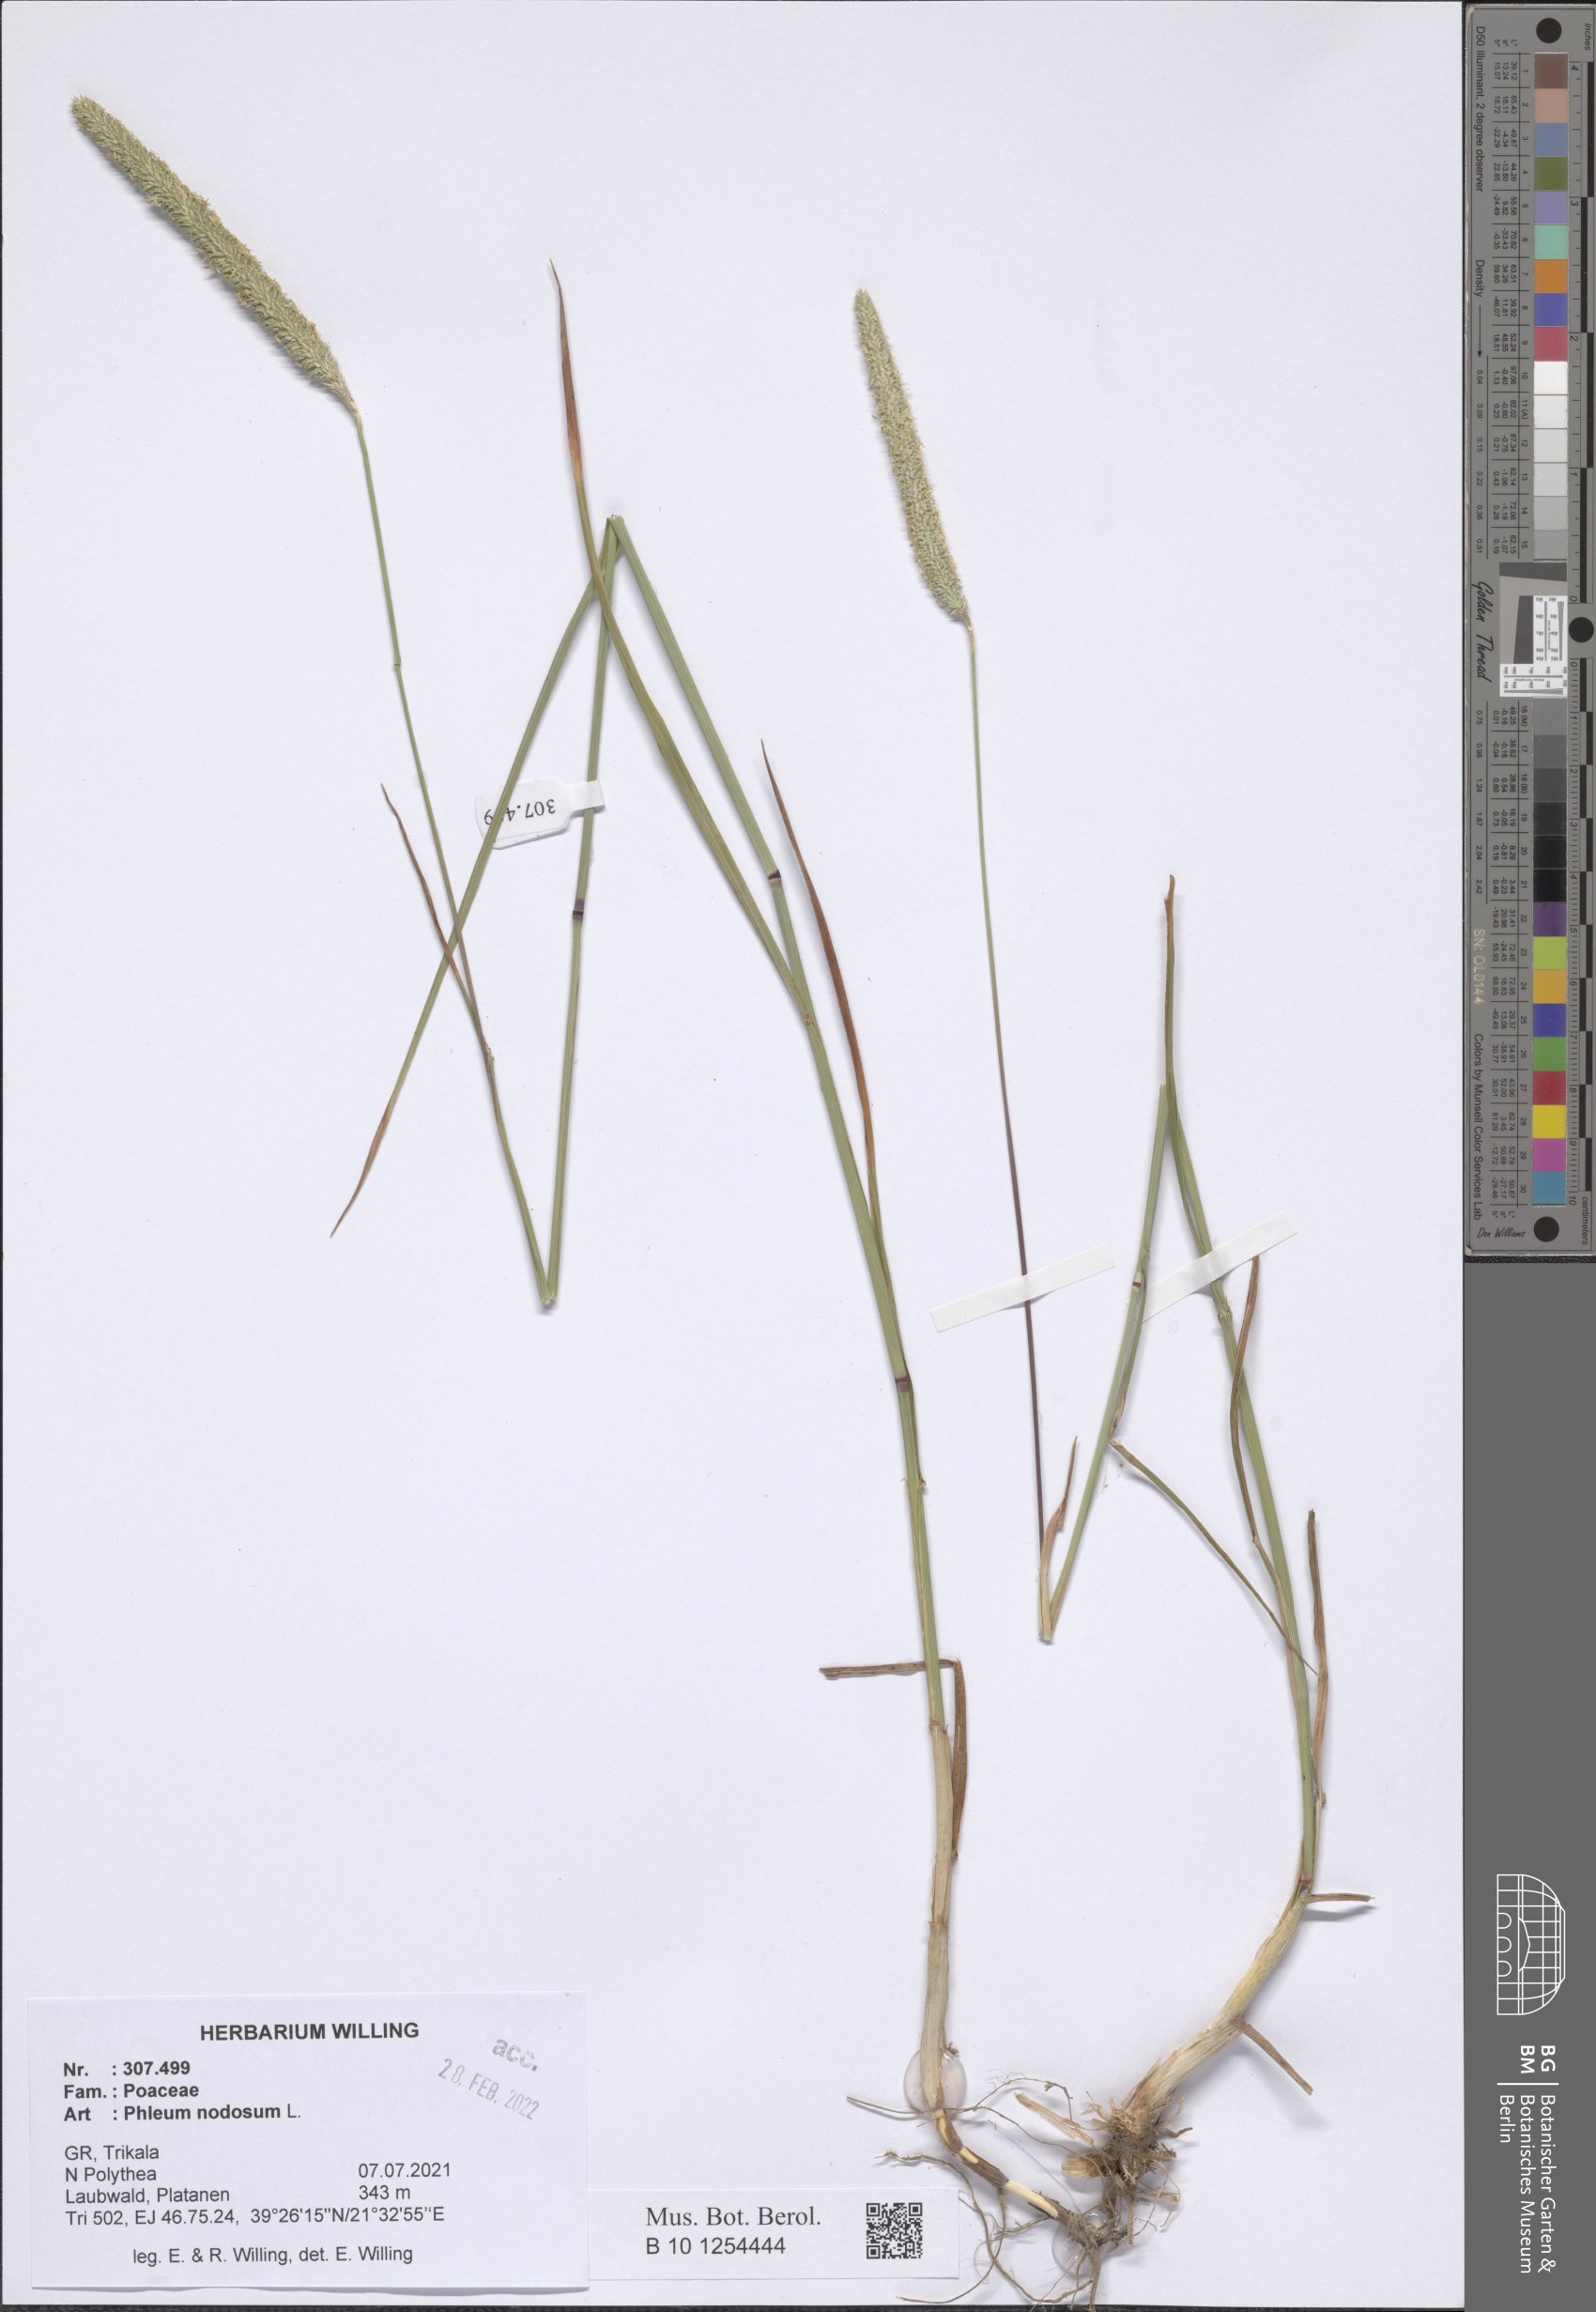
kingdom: Plantae
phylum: Tracheophyta
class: Liliopsida
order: Poales
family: Poaceae
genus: Phleum
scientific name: Phleum pratense
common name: Timothy grass
